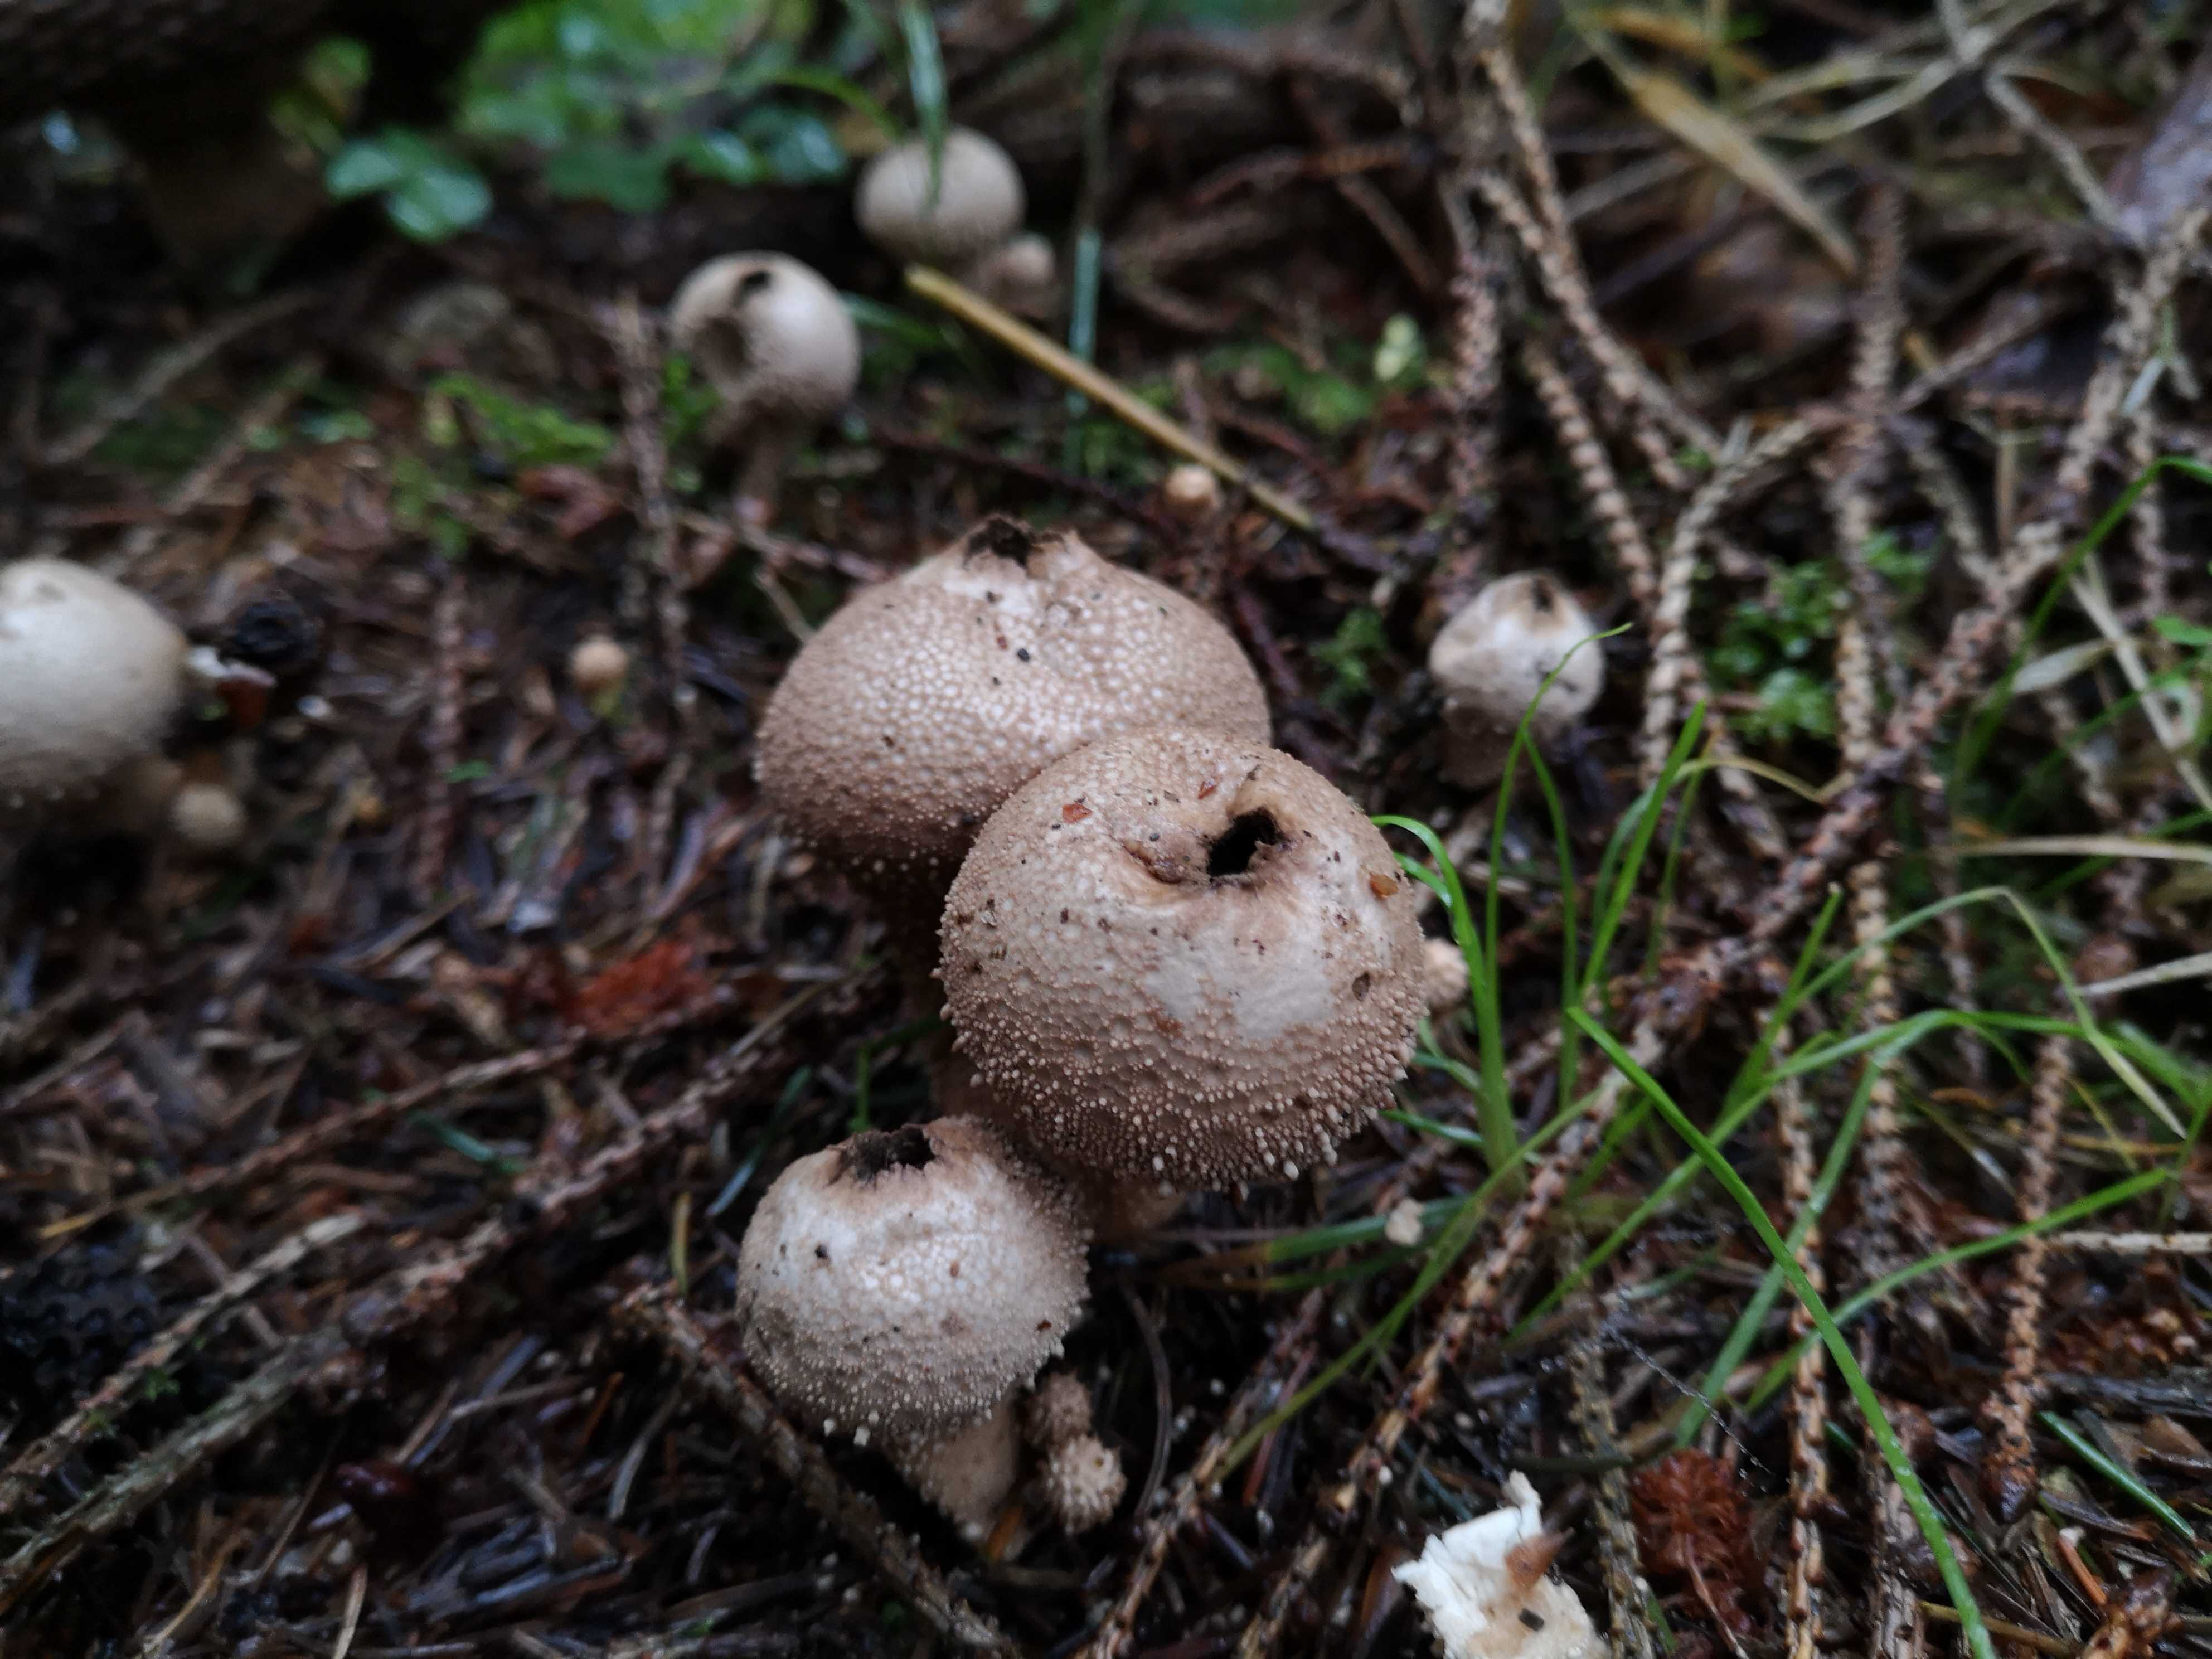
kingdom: Fungi
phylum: Basidiomycota
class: Agaricomycetes
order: Agaricales
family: Lycoperdaceae
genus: Lycoperdon
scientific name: Lycoperdon perlatum
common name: krystal-støvbold
